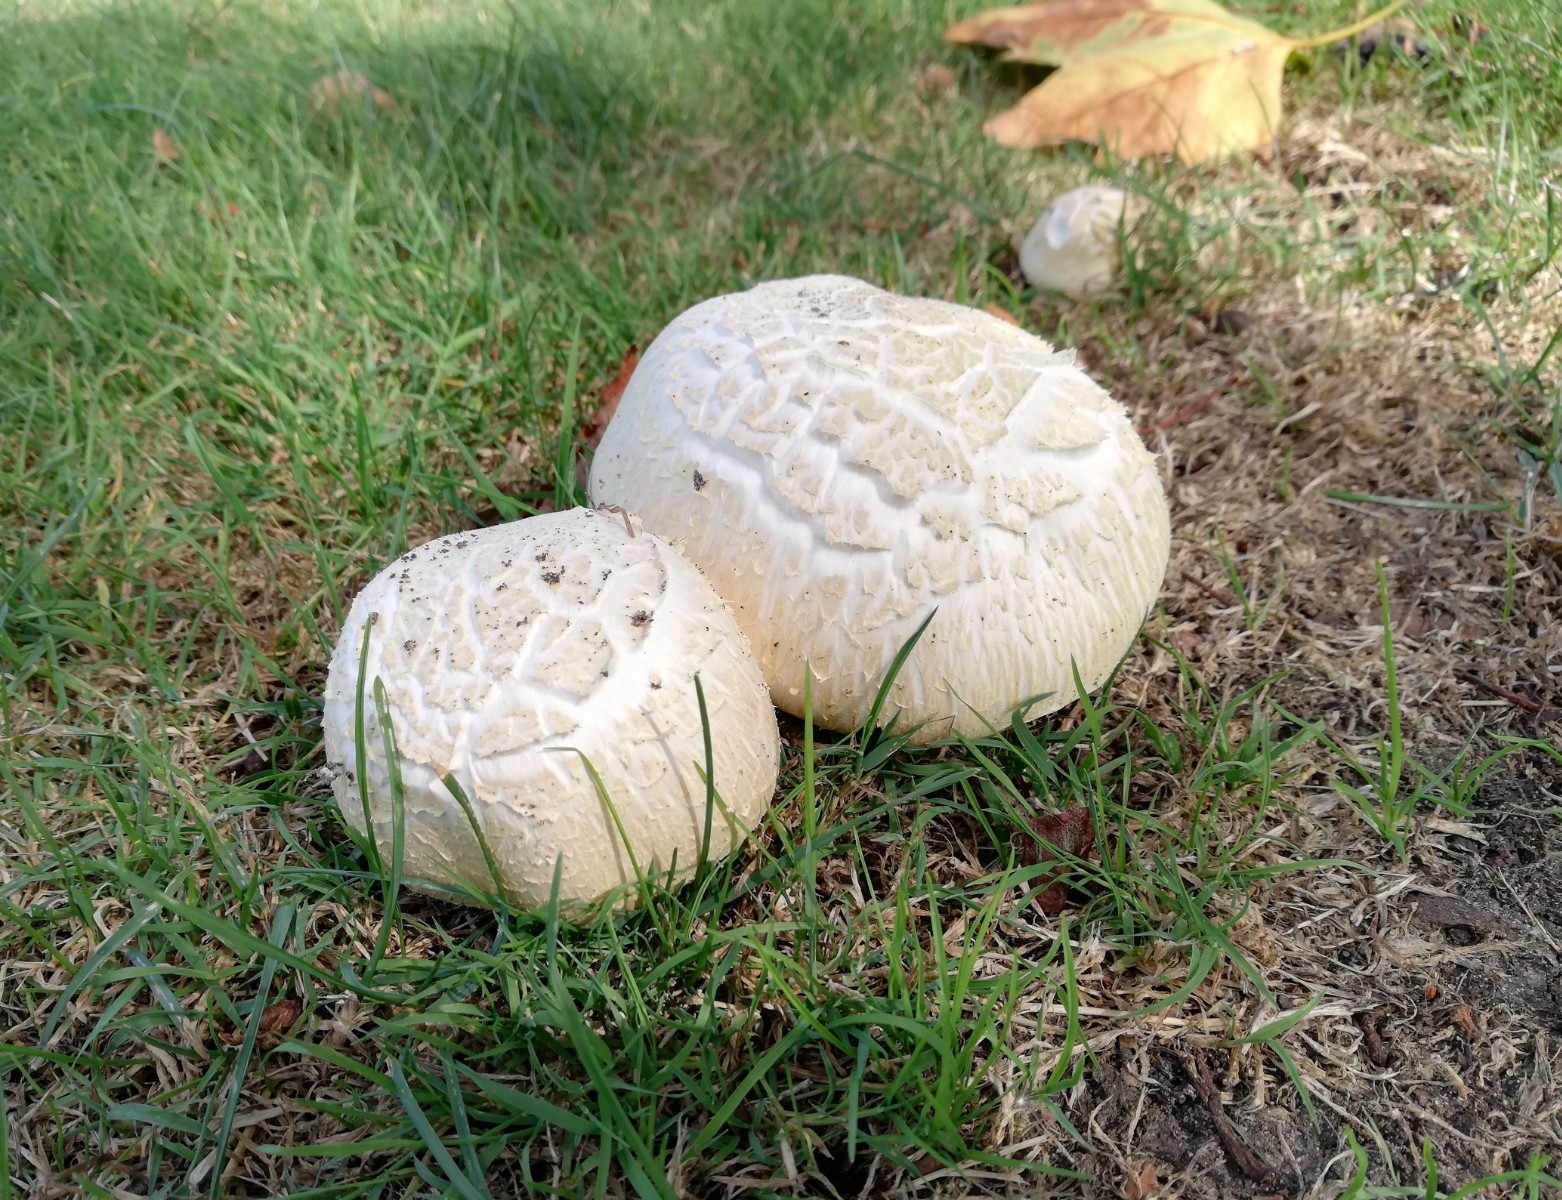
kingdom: Fungi
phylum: Basidiomycota
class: Agaricomycetes
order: Agaricales
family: Agaricaceae
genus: Agaricus
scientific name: Agaricus arvensis
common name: ager-champignon
